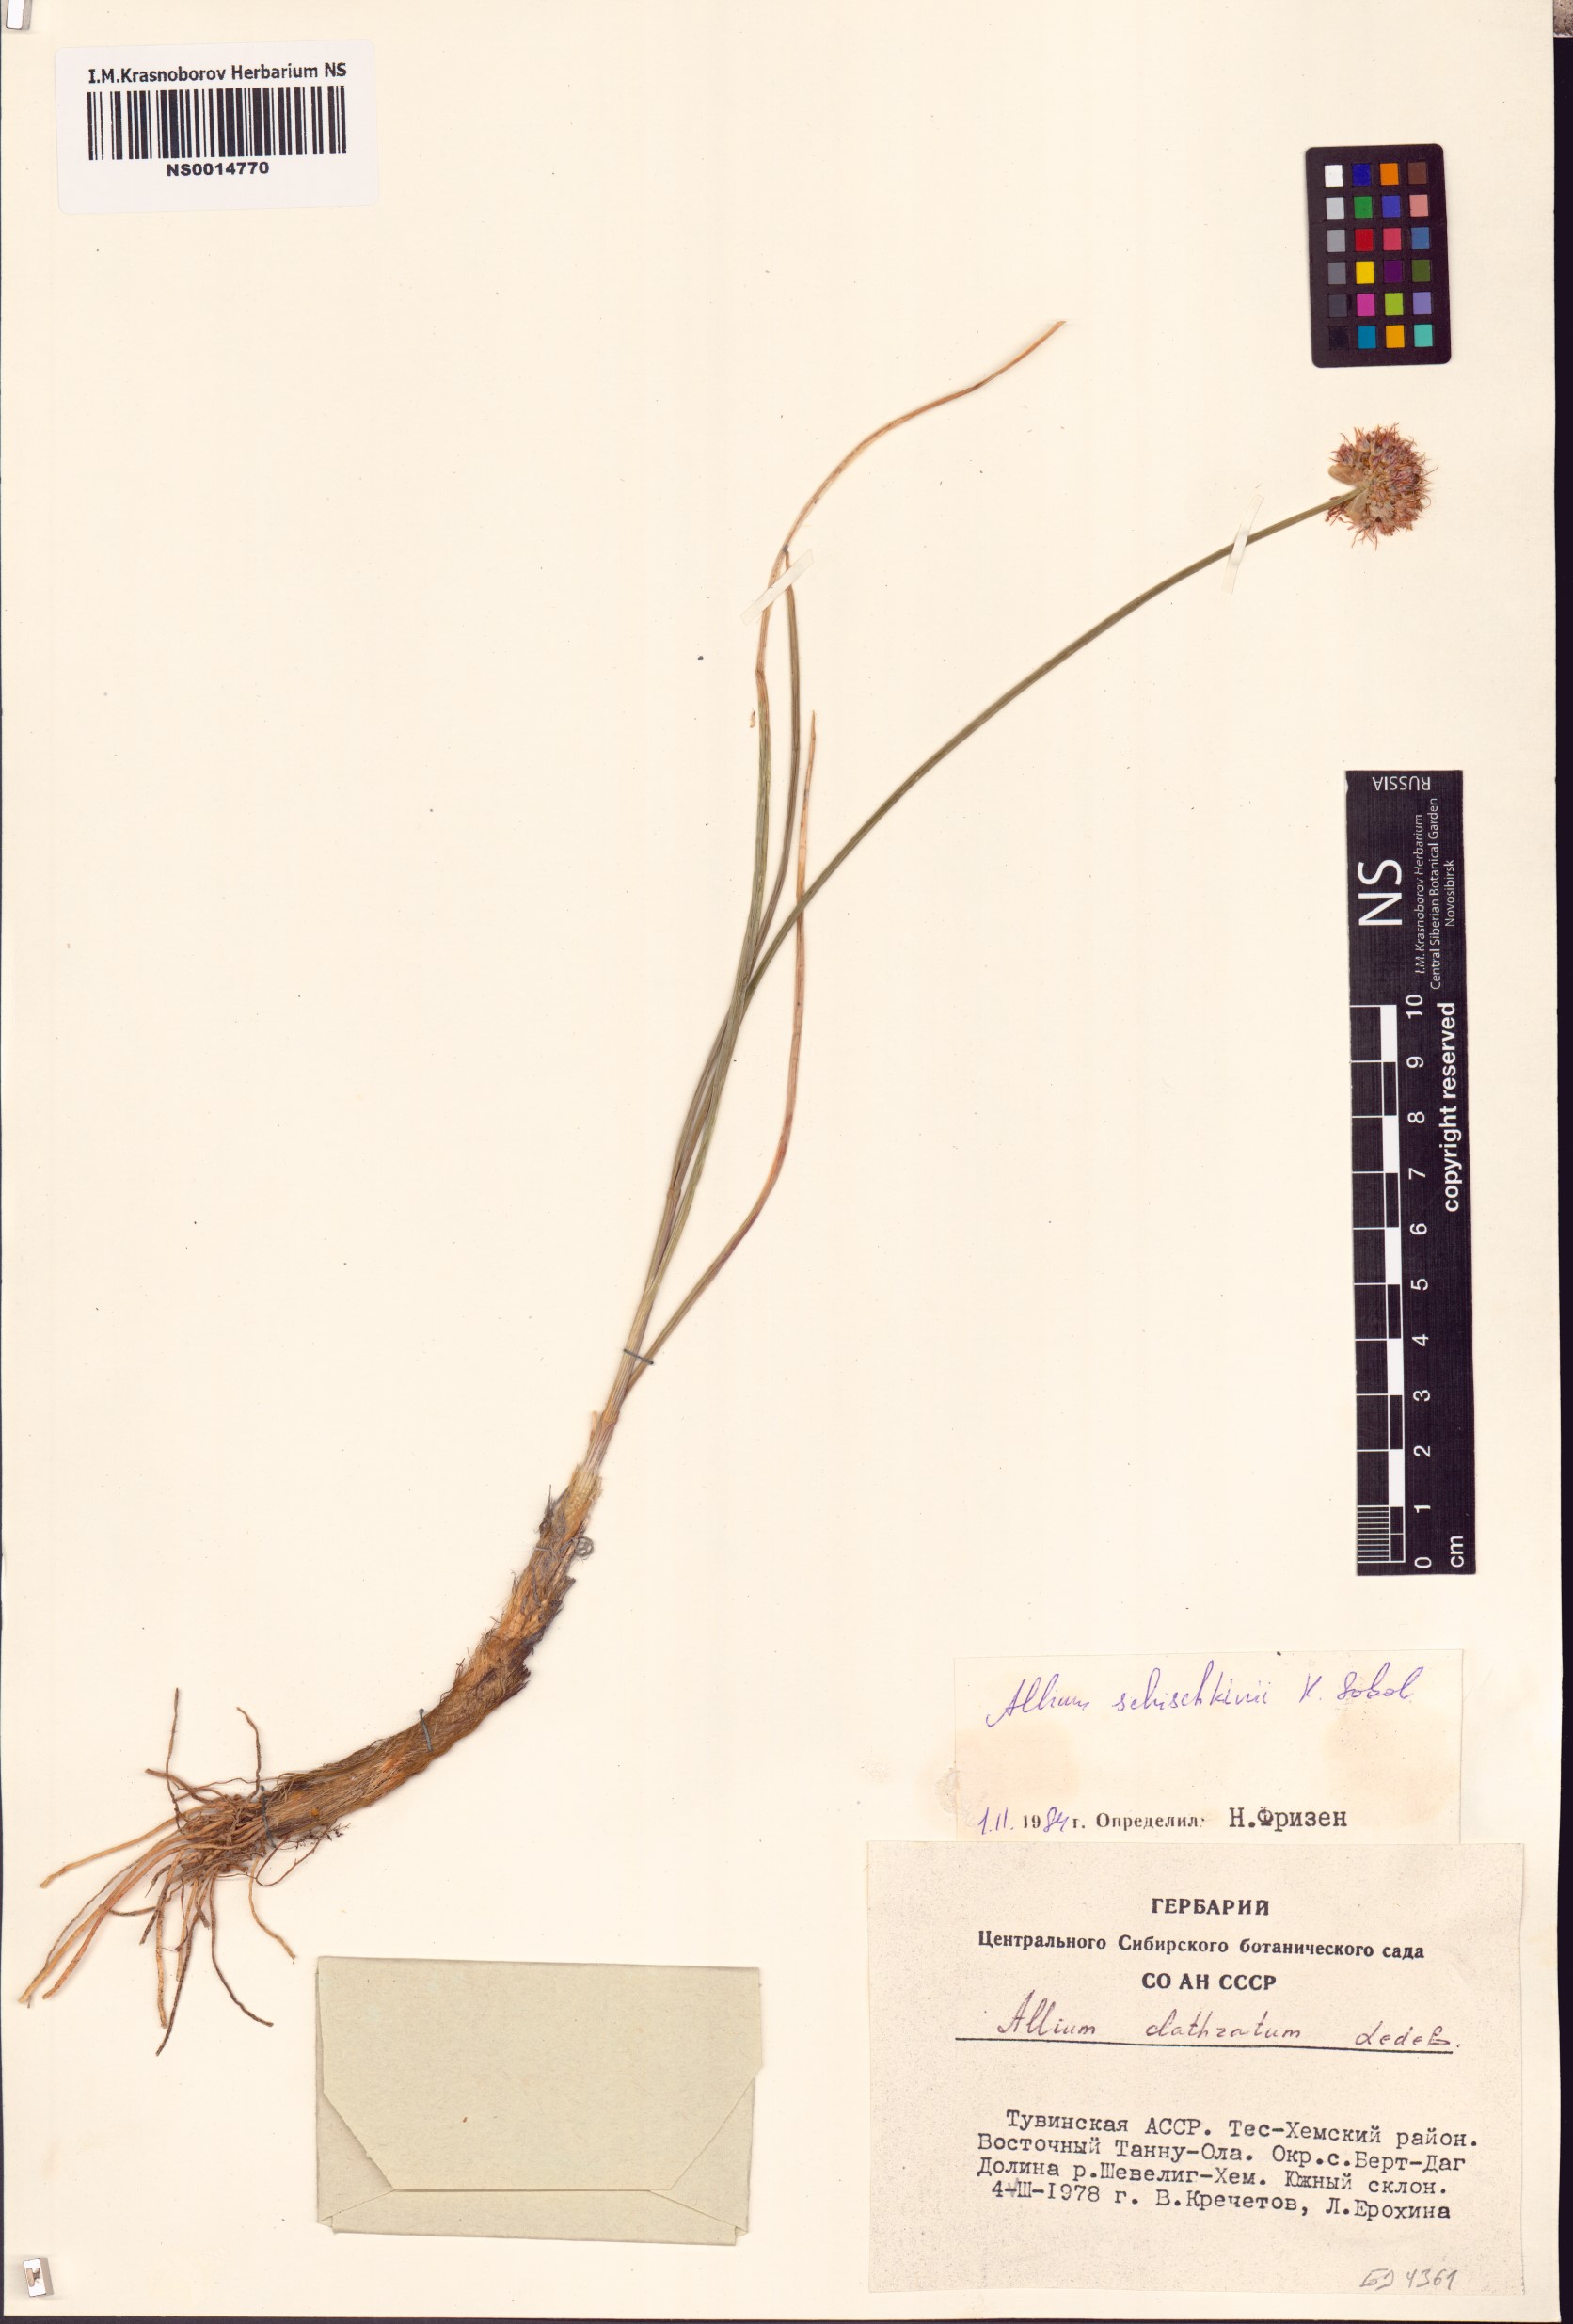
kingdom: Plantae
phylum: Tracheophyta
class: Liliopsida
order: Asparagales
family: Amaryllidaceae
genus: Allium
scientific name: Allium schischkinii
